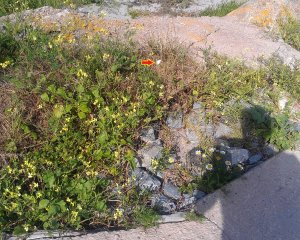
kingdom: Animalia
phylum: Arthropoda
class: Insecta
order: Lepidoptera
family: Pieridae
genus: Pieris
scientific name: Pieris rapae
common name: Cabbage White
